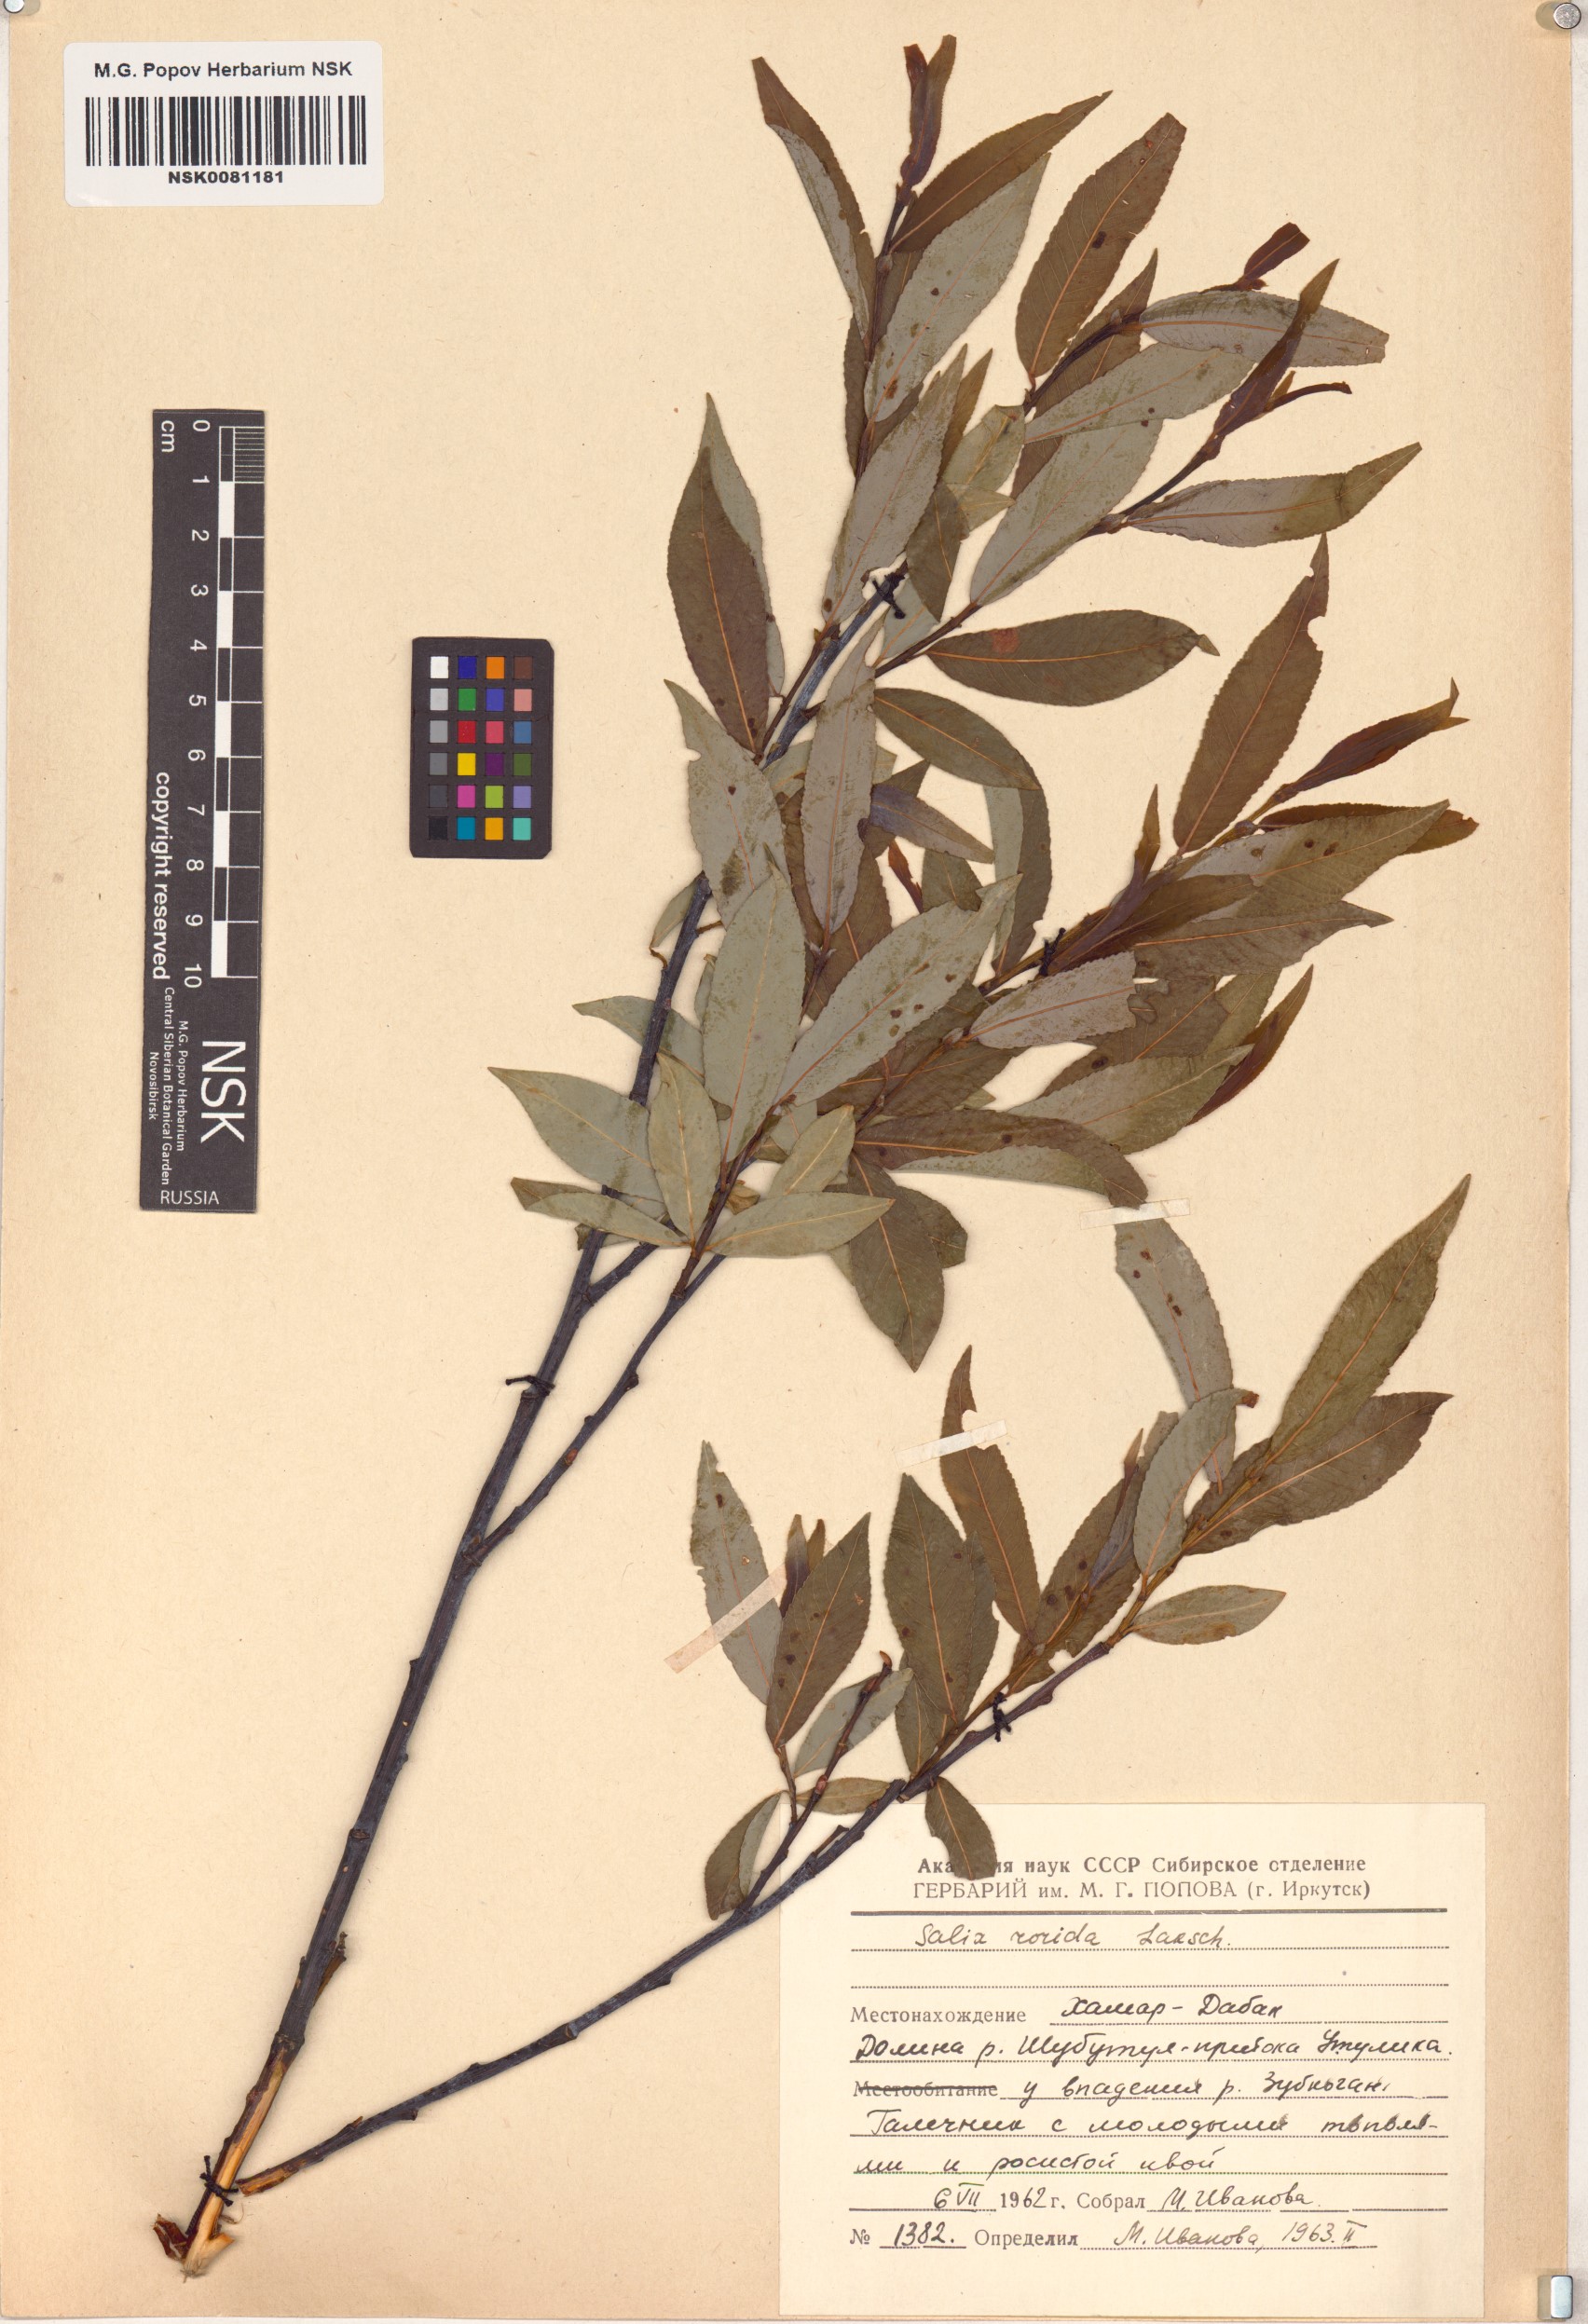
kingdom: Plantae
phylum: Tracheophyta
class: Magnoliopsida
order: Malpighiales
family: Salicaceae
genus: Salix
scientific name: Salix rorida
